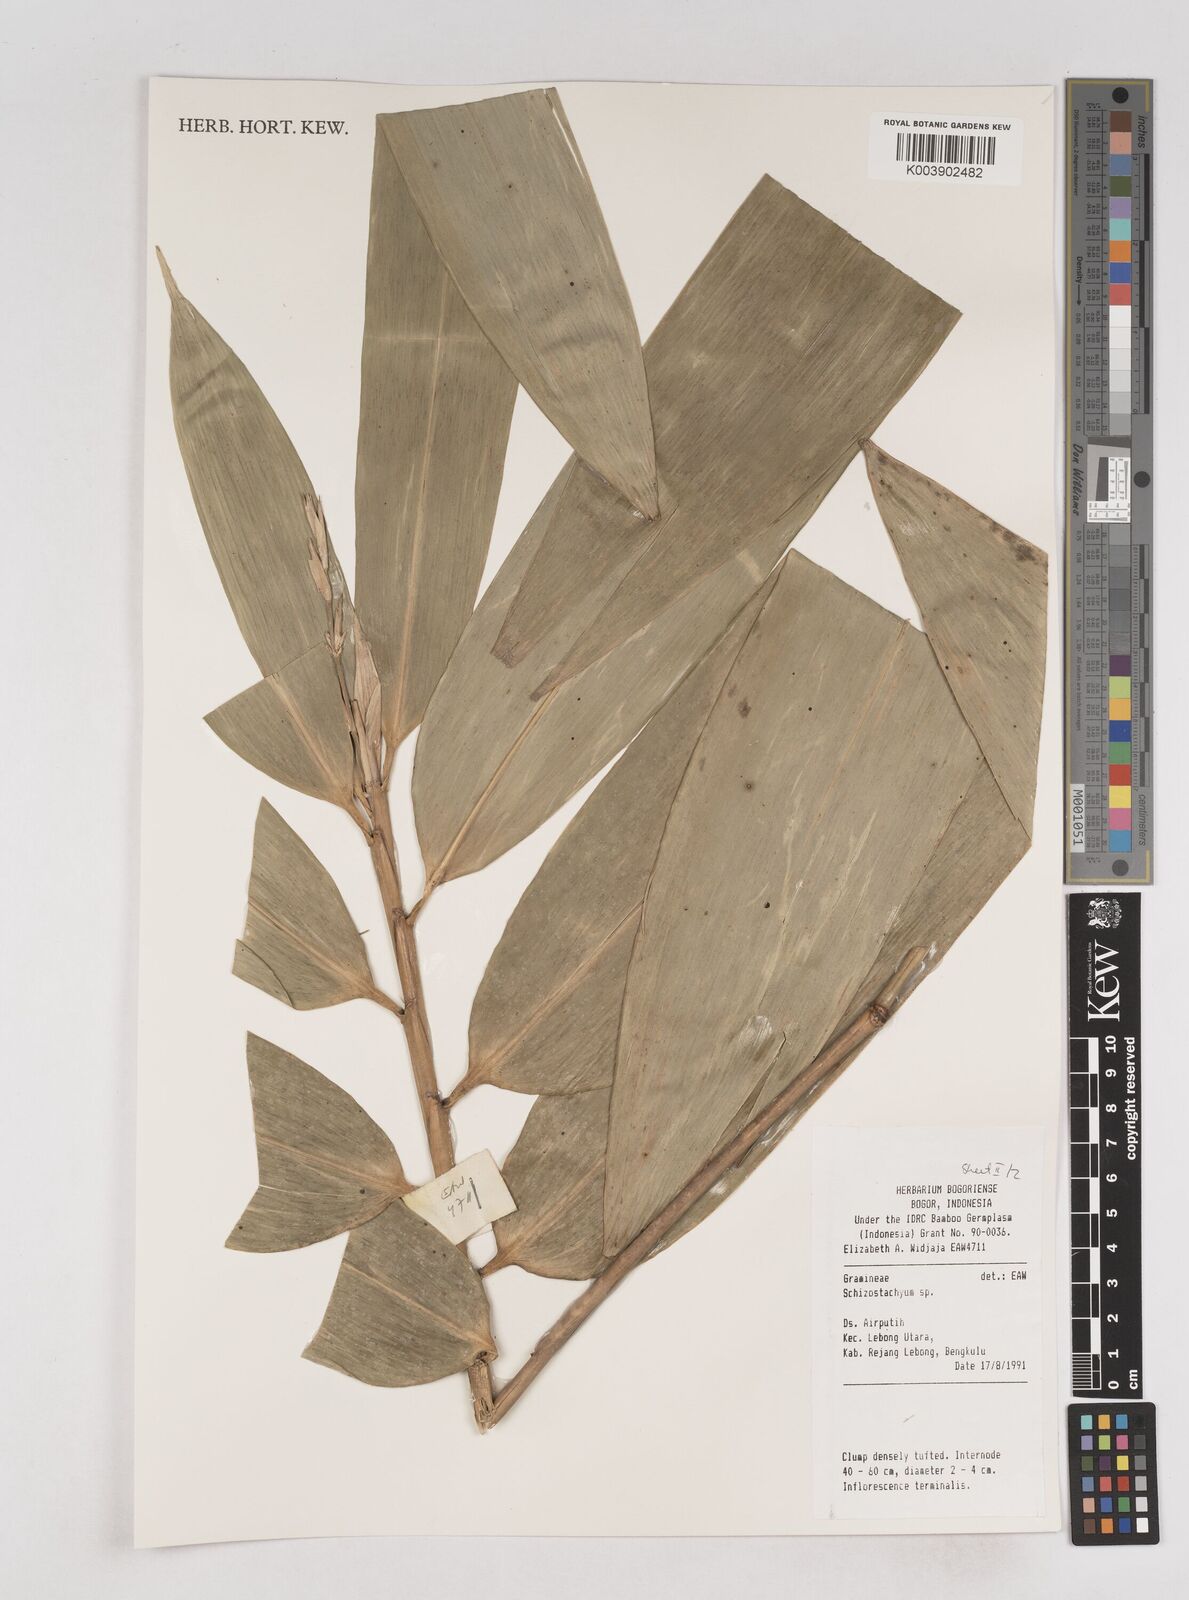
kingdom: Plantae
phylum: Tracheophyta
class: Liliopsida
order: Poales
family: Poaceae
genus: Schizostachyum
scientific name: Schizostachyum
